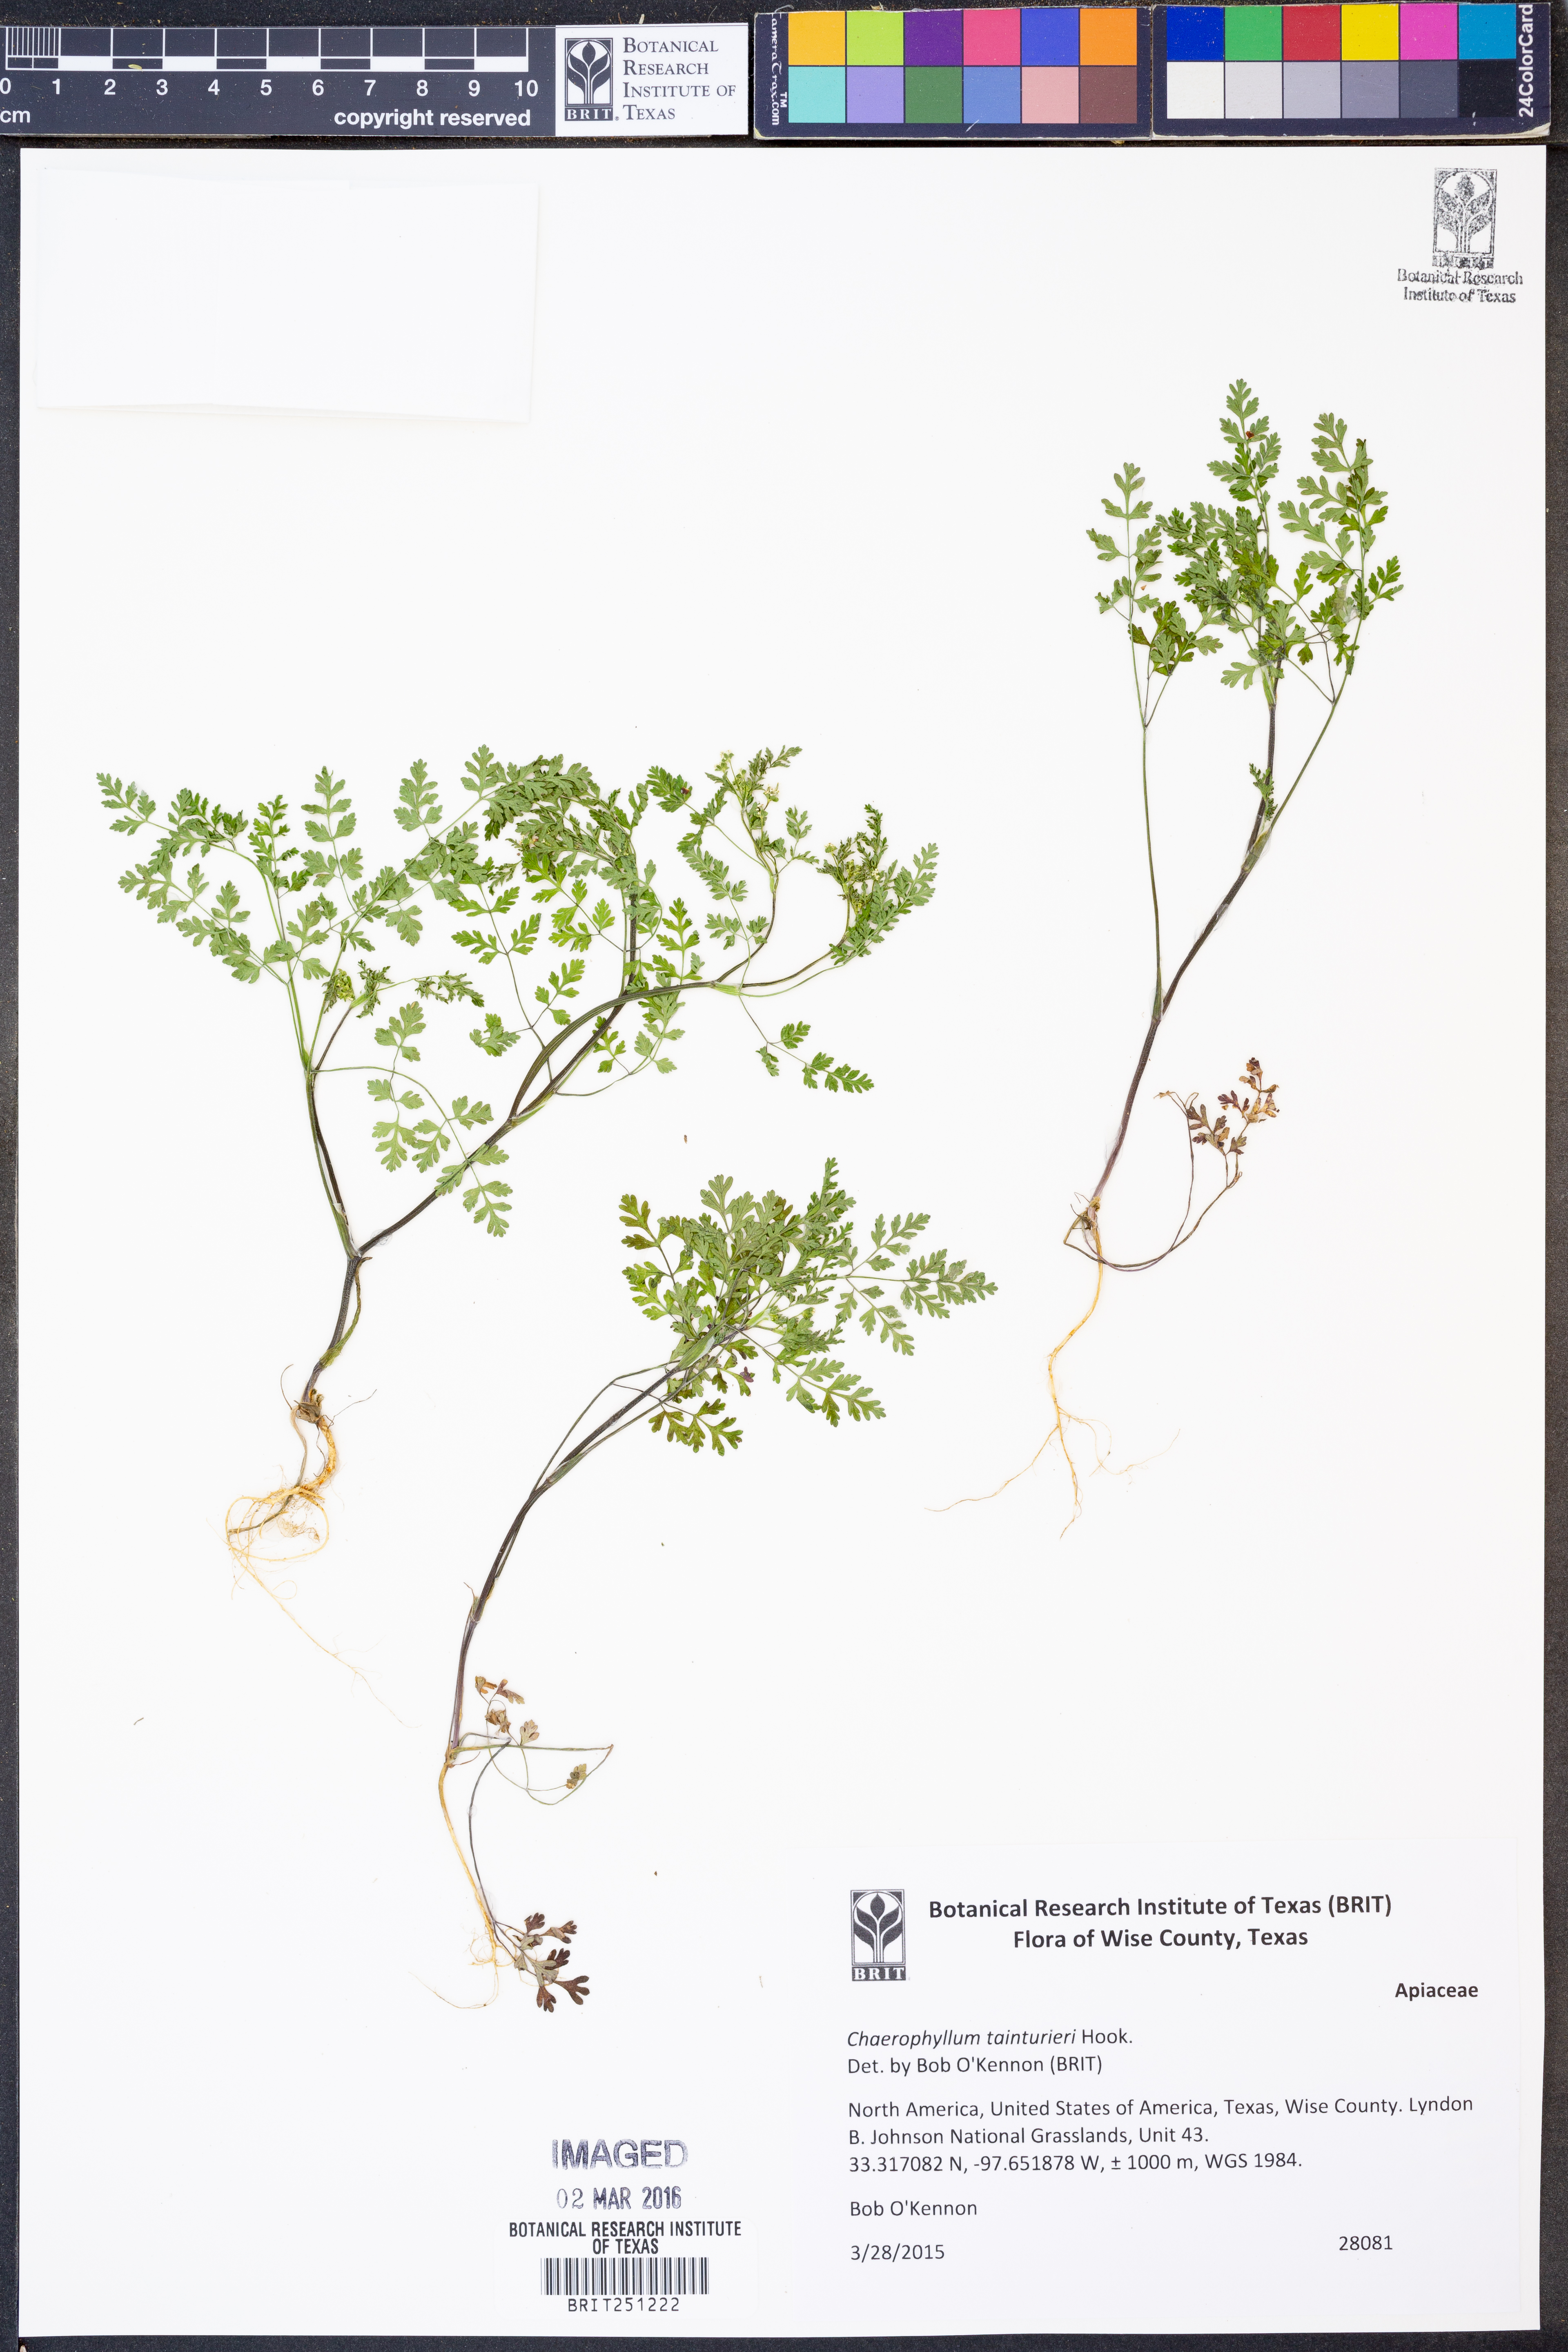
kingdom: Plantae
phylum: Tracheophyta
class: Magnoliopsida
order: Apiales
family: Apiaceae
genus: Chaerophyllum
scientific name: Chaerophyllum tainturieri
